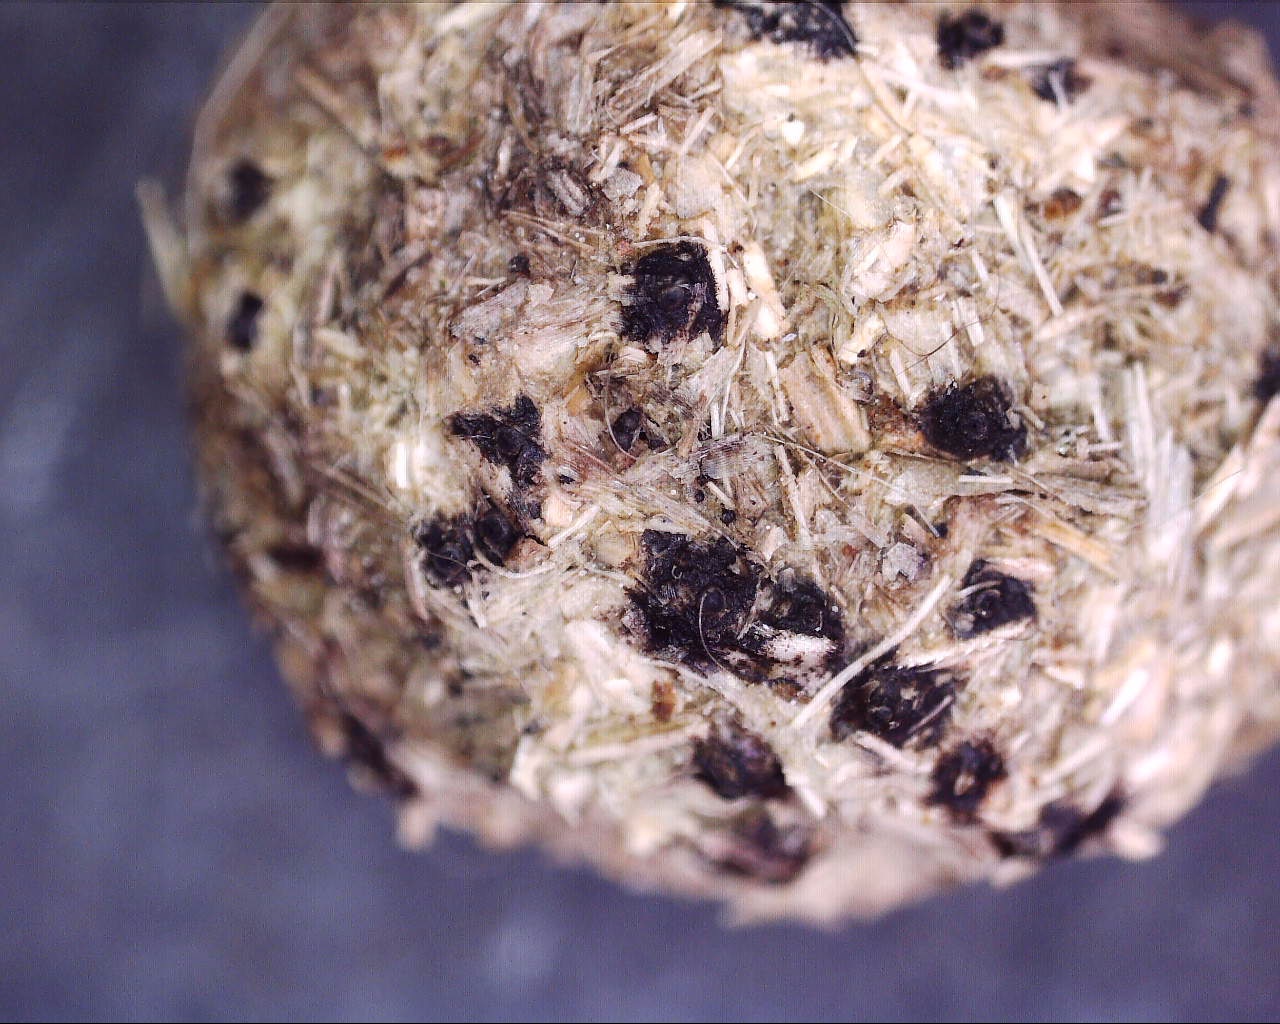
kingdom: Fungi
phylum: Ascomycota
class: Sordariomycetes
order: Xylariales
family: Xylariaceae
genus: Hypocopra
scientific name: Hypocopra
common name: skjoldkerne
